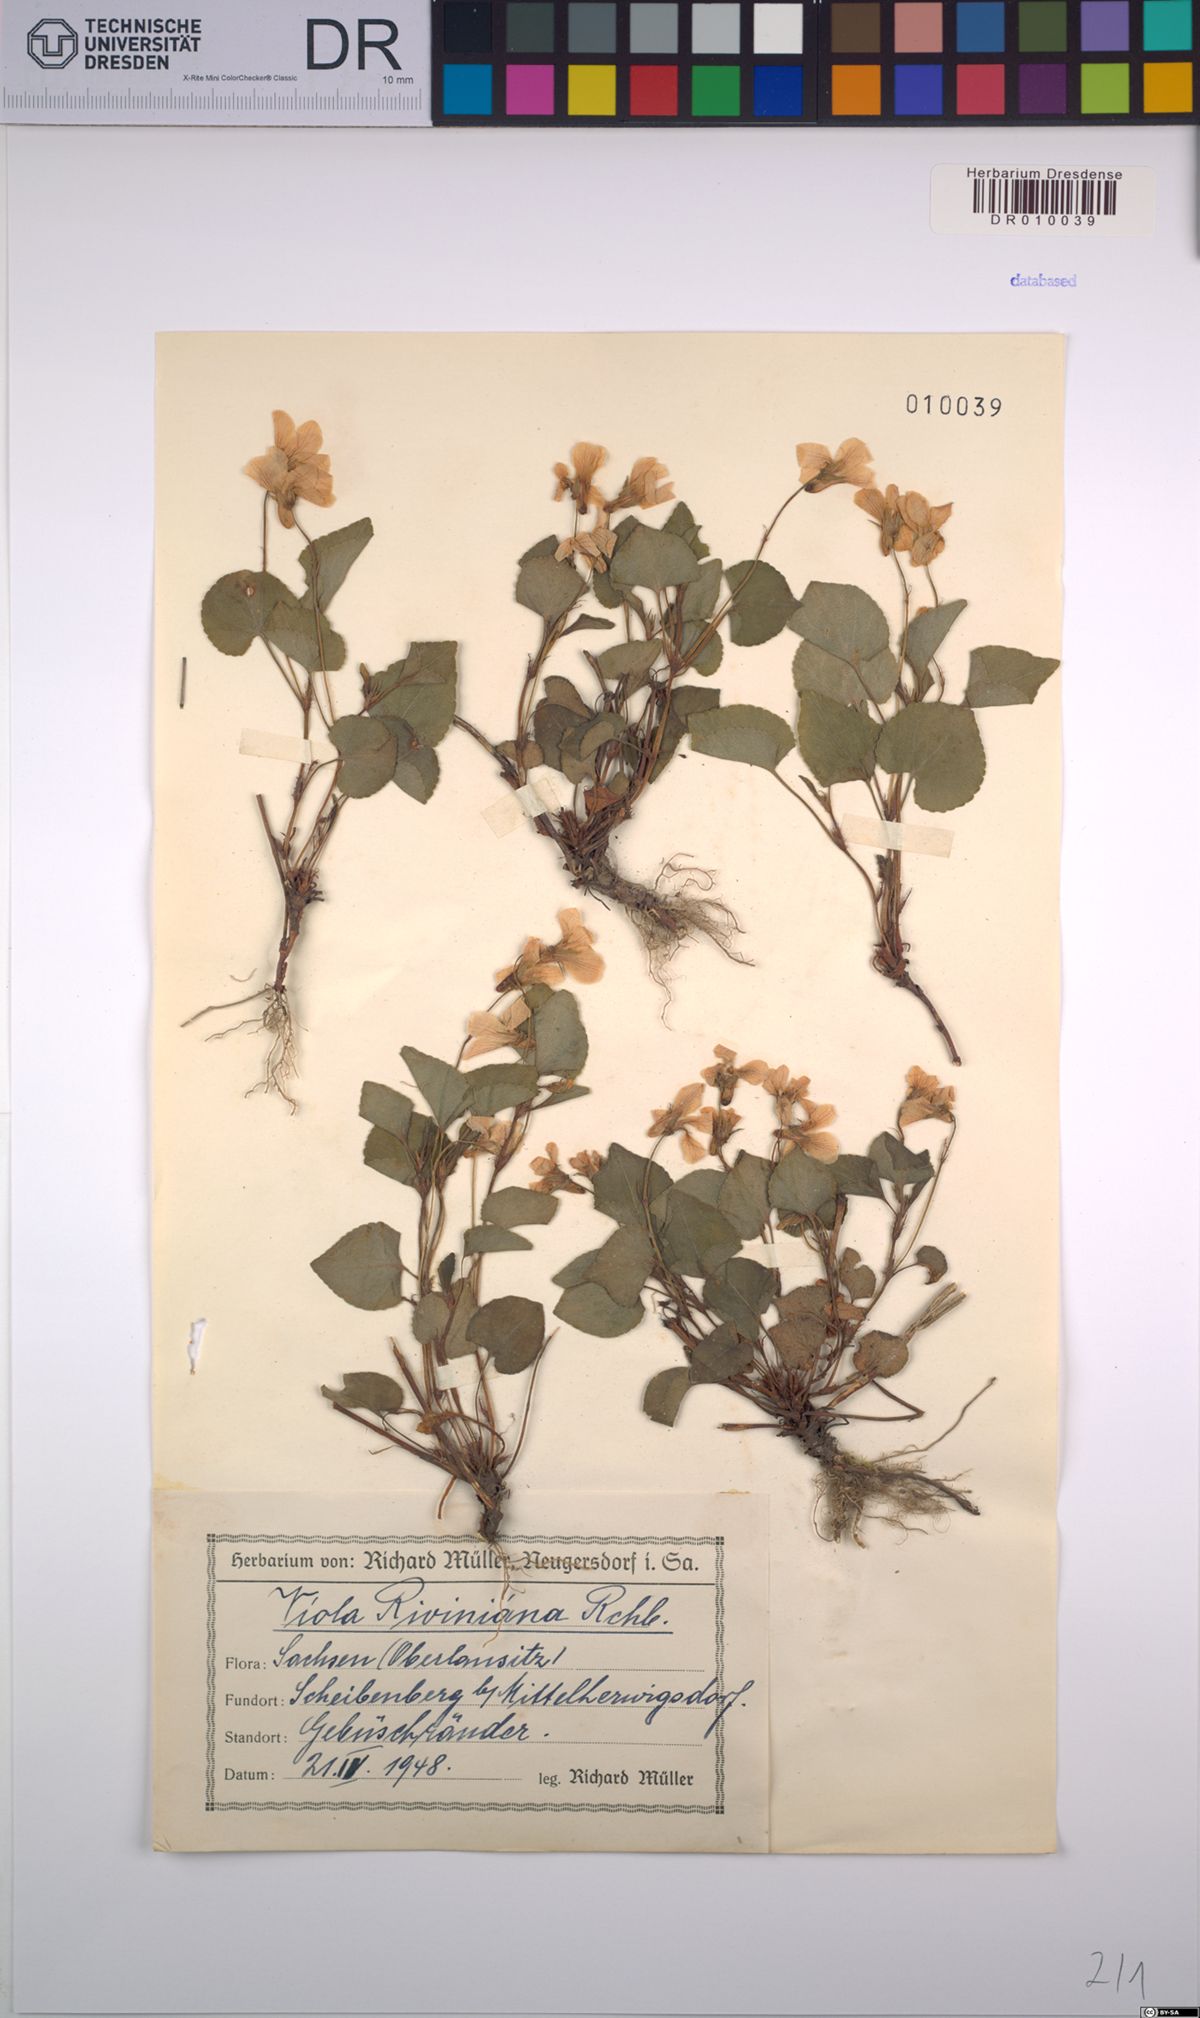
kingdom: Plantae
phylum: Tracheophyta
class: Magnoliopsida
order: Malpighiales
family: Violaceae
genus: Viola
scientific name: Viola riviniana
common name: Common dog-violet
